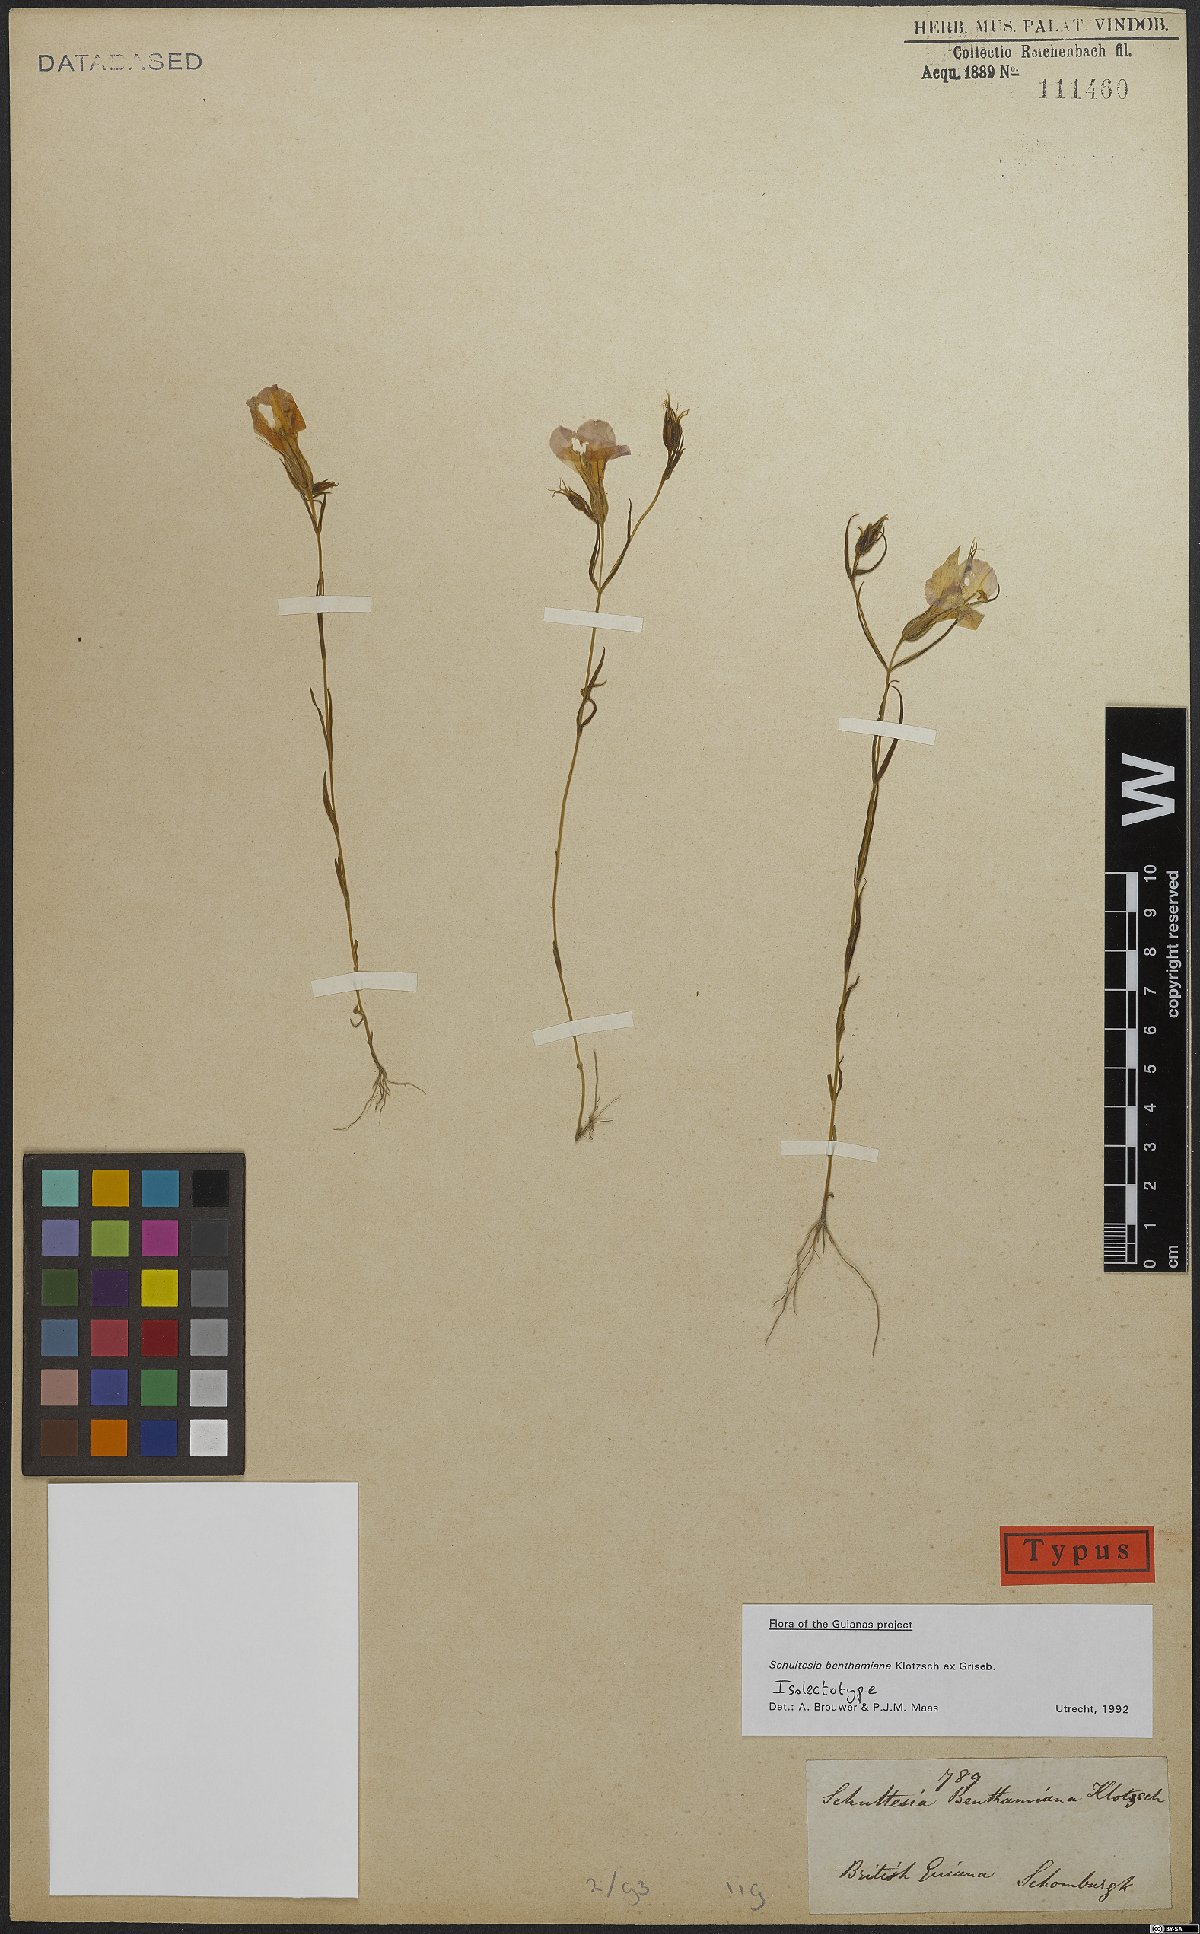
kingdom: Plantae
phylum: Tracheophyta
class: Magnoliopsida
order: Gentianales
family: Gentianaceae
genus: Schultesia
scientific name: Schultesia benthamiana
